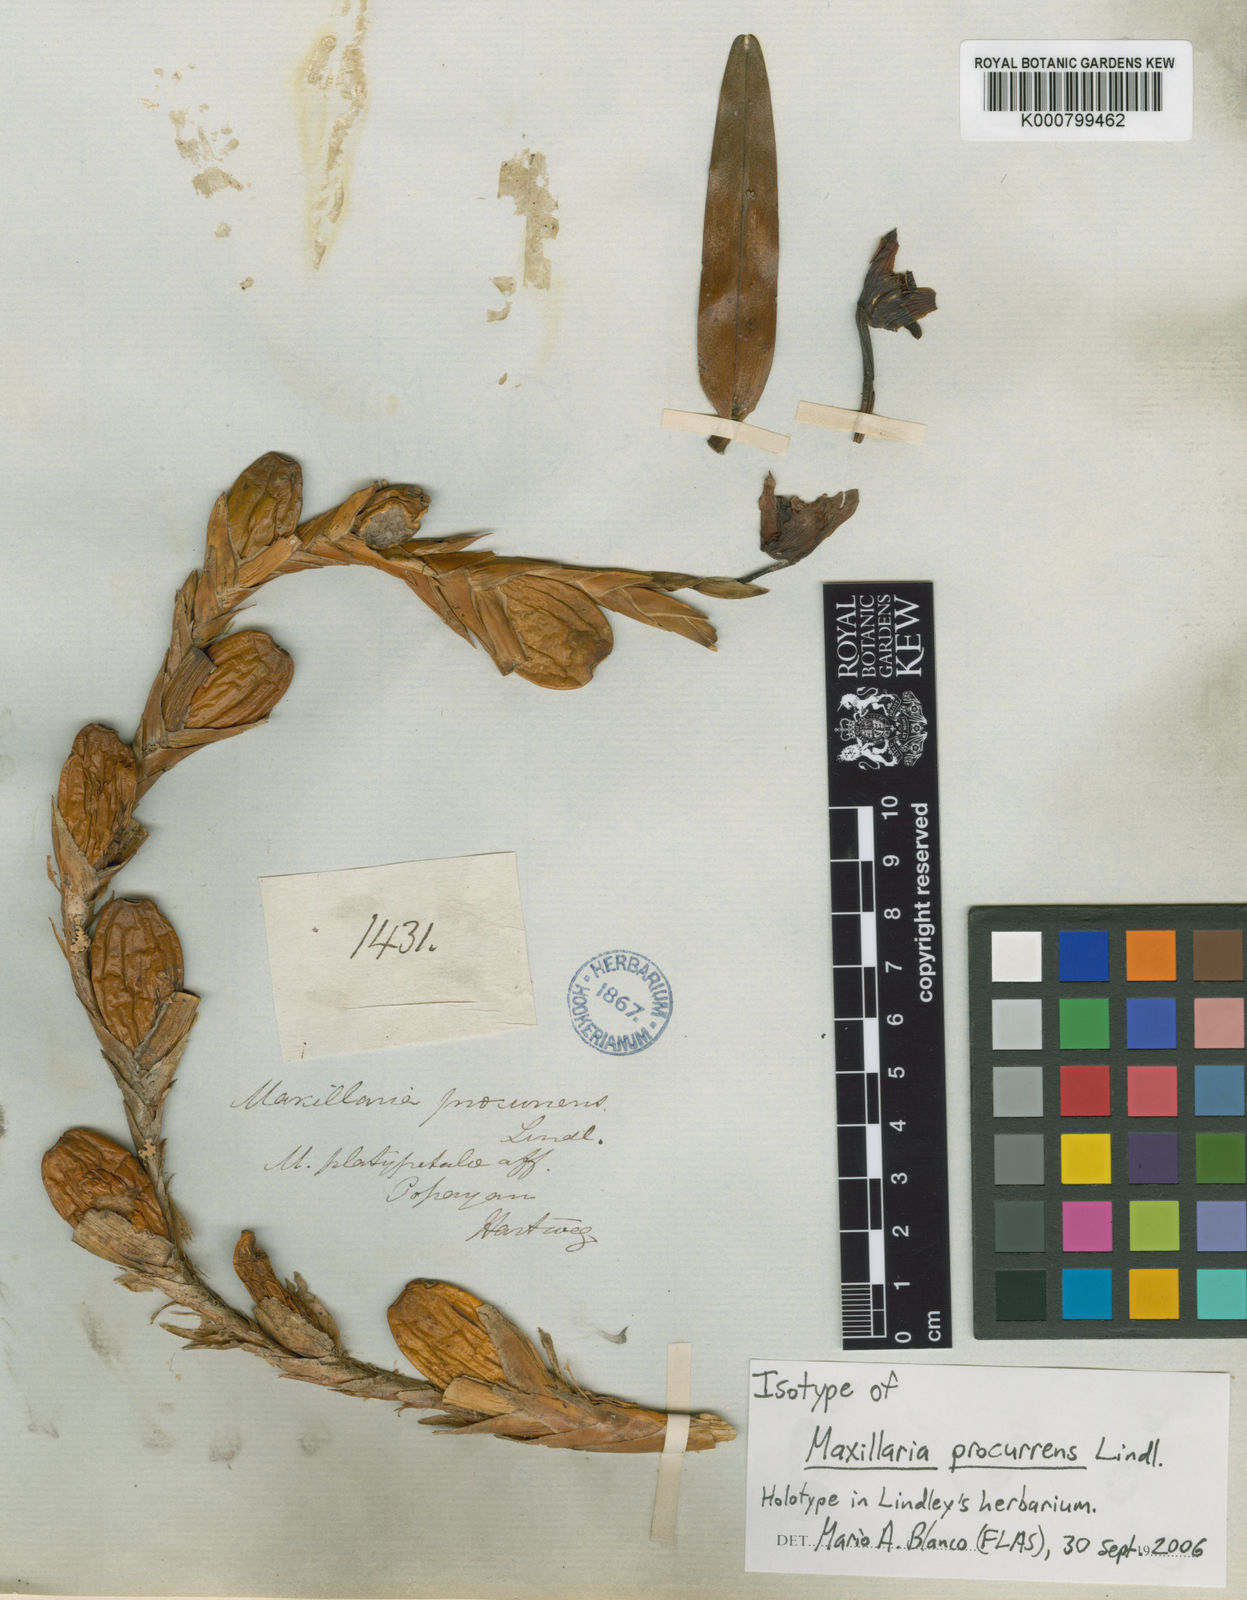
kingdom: Plantae
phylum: Tracheophyta
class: Liliopsida
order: Asparagales
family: Orchidaceae
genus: Maxillaria
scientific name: Maxillaria procurrens
